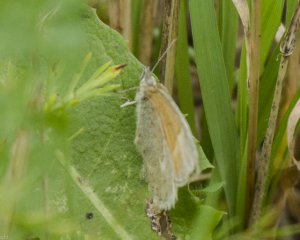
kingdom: Animalia
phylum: Arthropoda
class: Insecta
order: Lepidoptera
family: Nymphalidae
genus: Coenonympha
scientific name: Coenonympha tullia
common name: Large Heath
